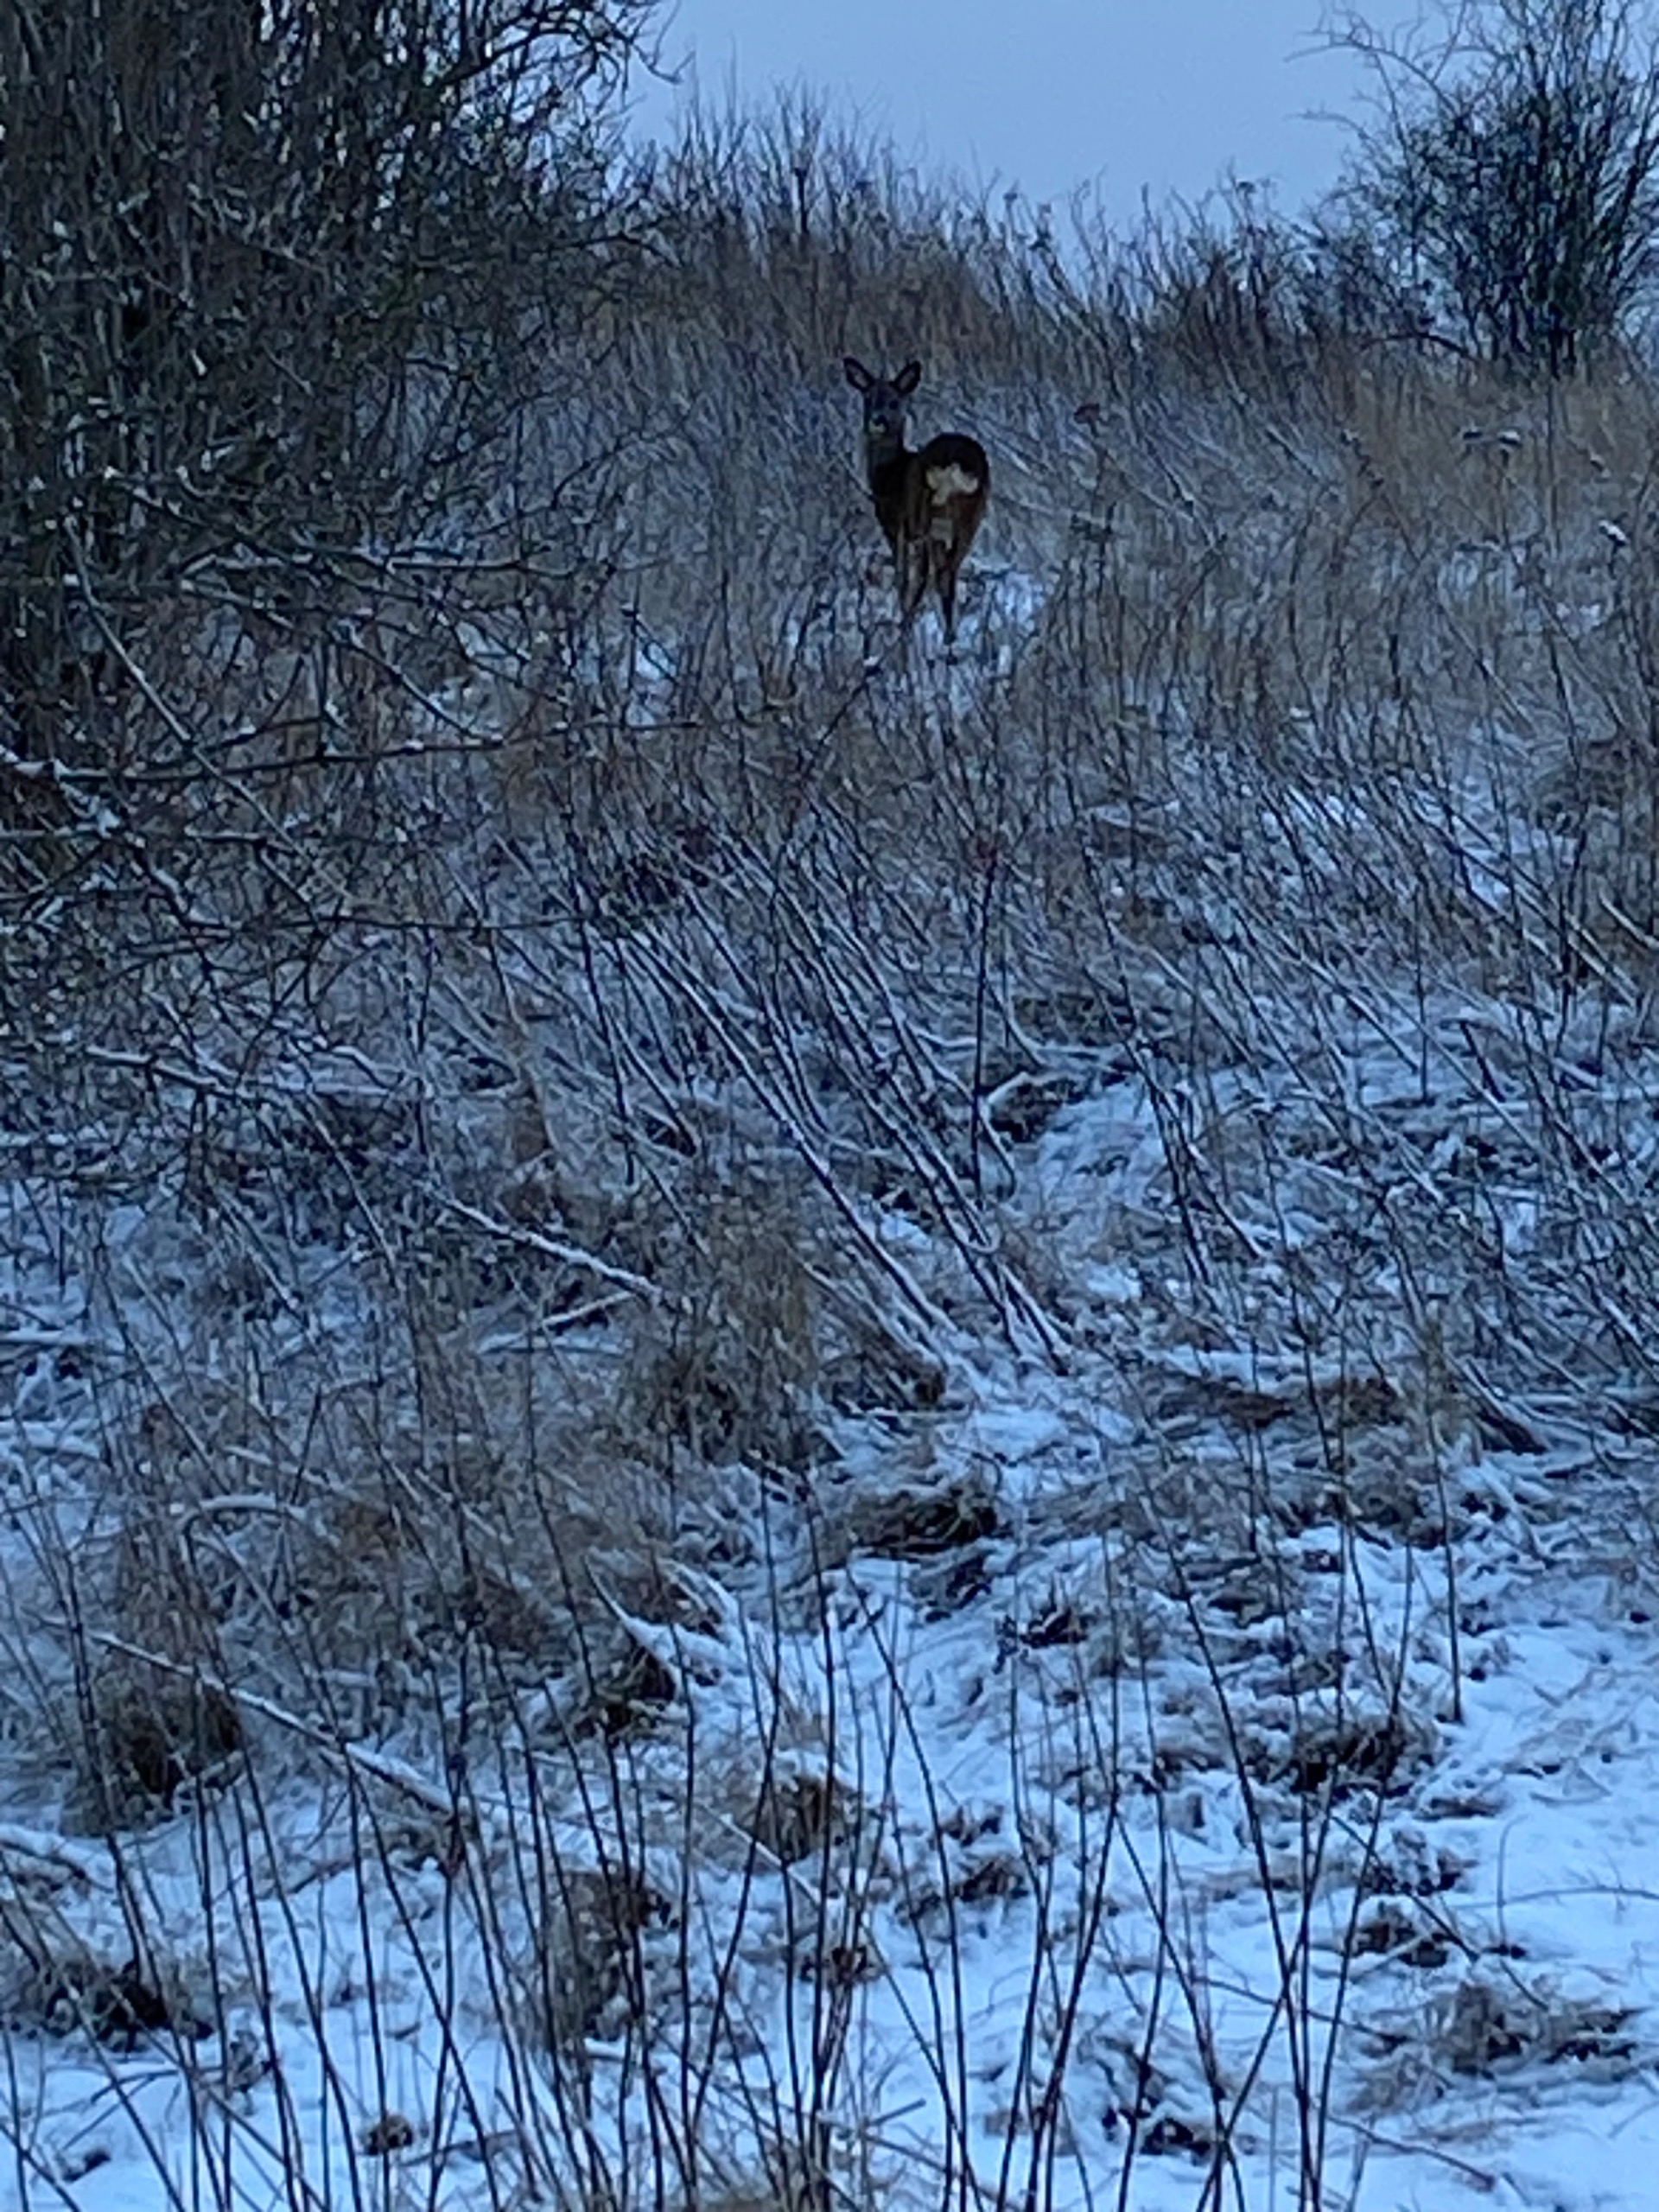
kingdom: Animalia
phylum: Chordata
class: Mammalia
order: Artiodactyla
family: Cervidae
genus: Capreolus
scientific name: Capreolus capreolus
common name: Rådyr
